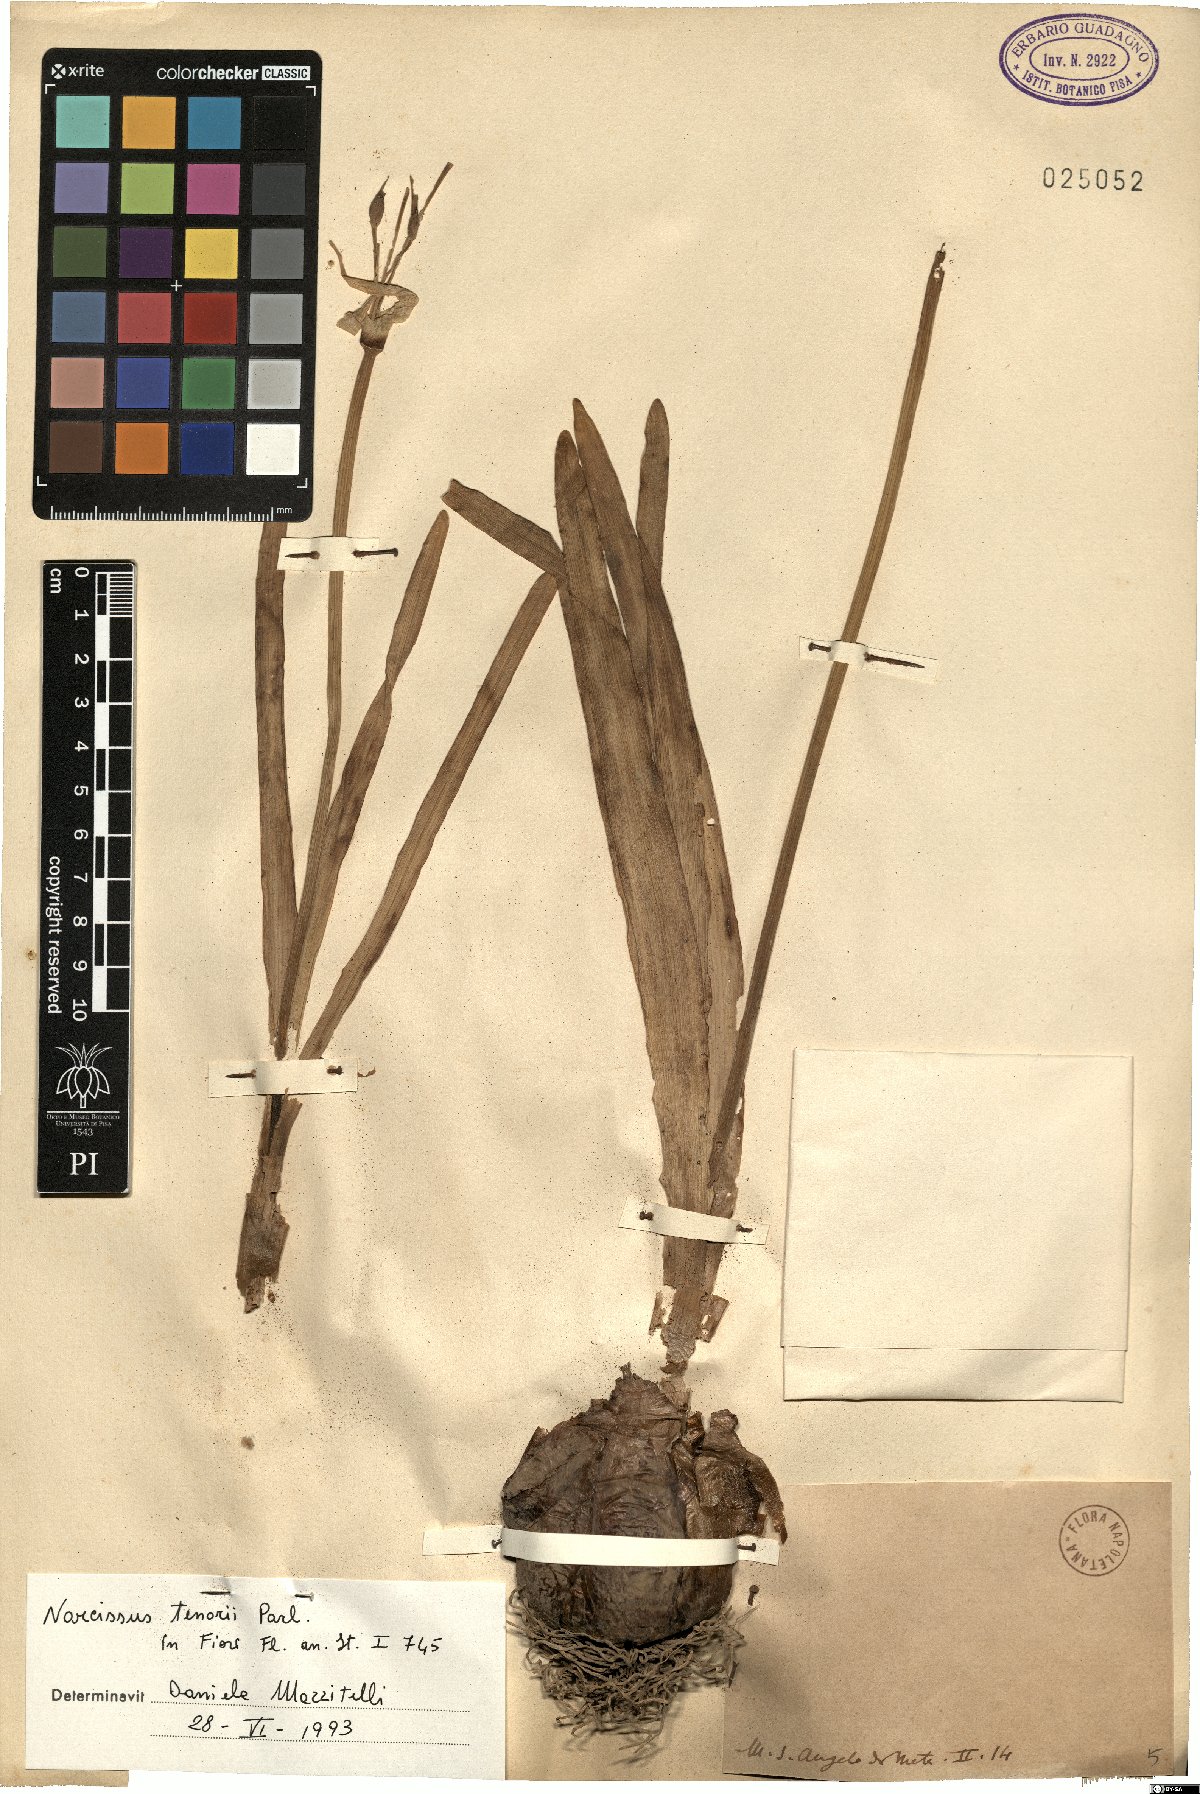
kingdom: Plantae
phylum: Tracheophyta
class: Liliopsida
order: Asparagales
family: Amaryllidaceae
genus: Narcissus
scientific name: Narcissus tazetta
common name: Bunch-flowered daffodil
